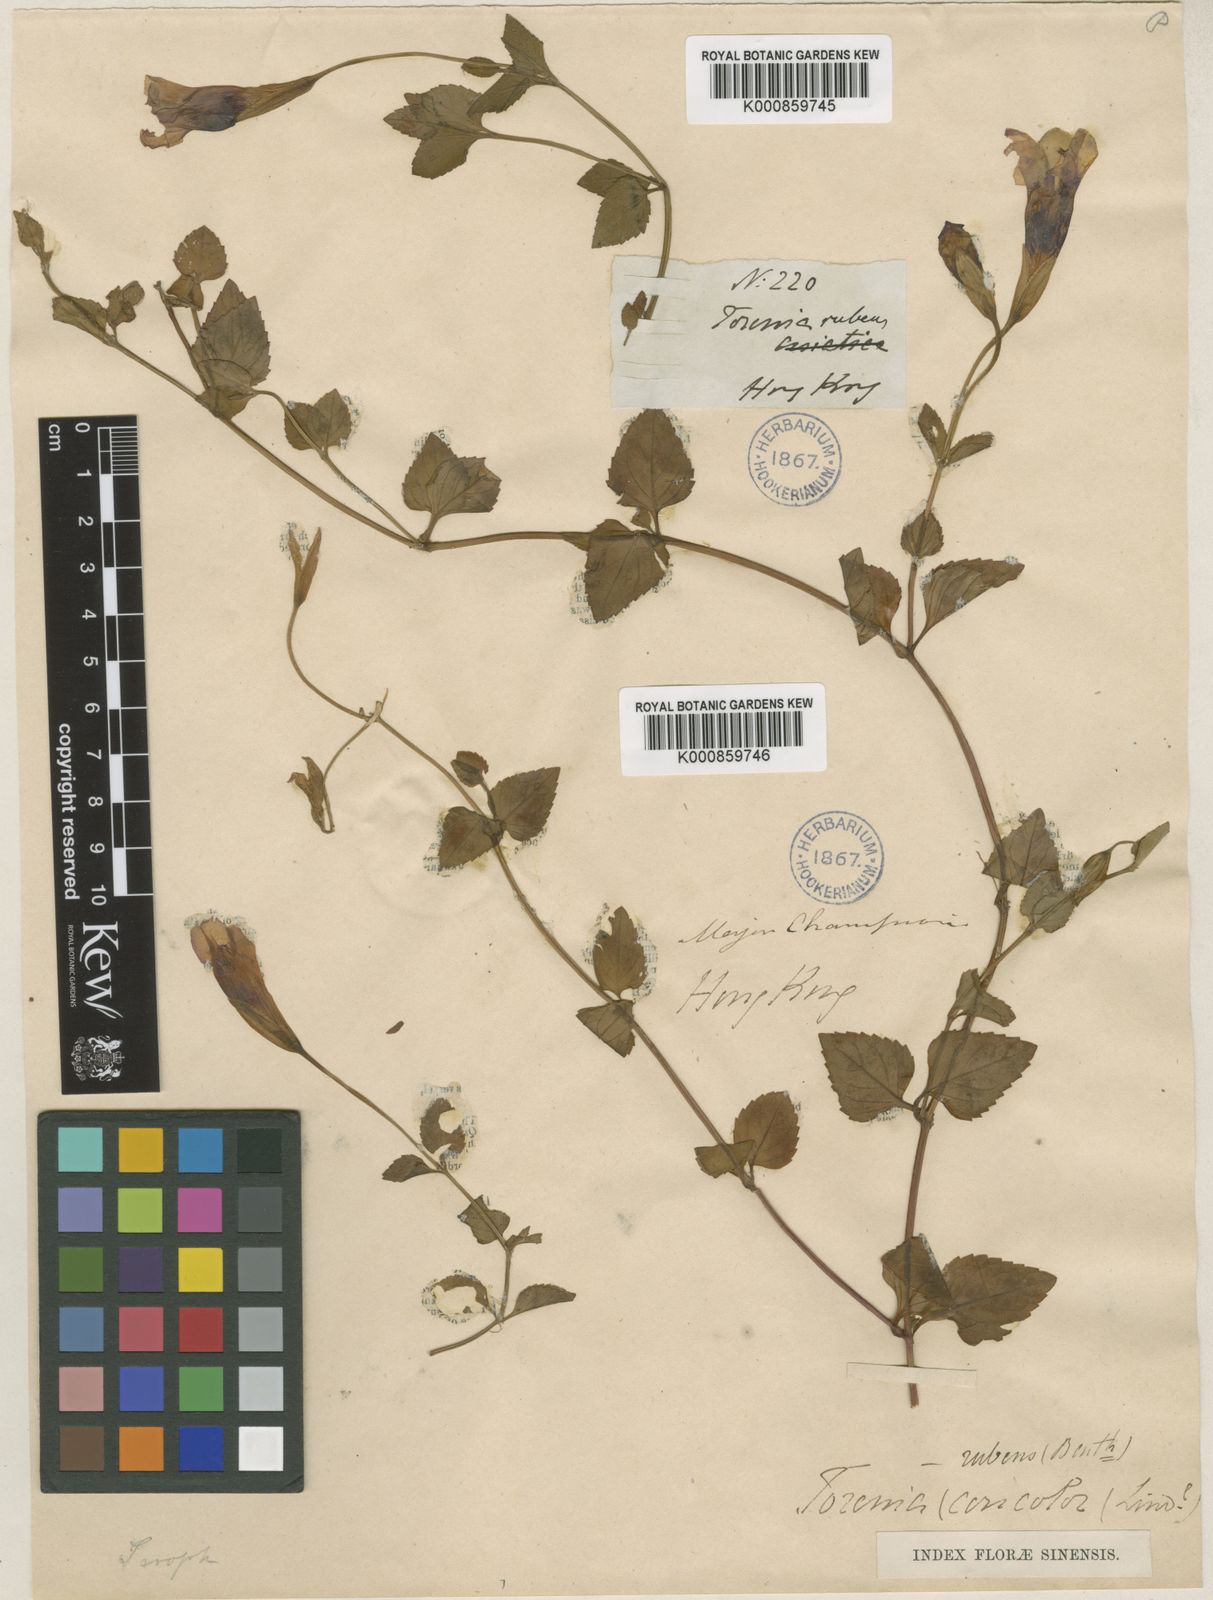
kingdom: Plantae
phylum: Tracheophyta
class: Magnoliopsida
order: Lamiales
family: Linderniaceae
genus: Torenia
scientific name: Torenia concolor
